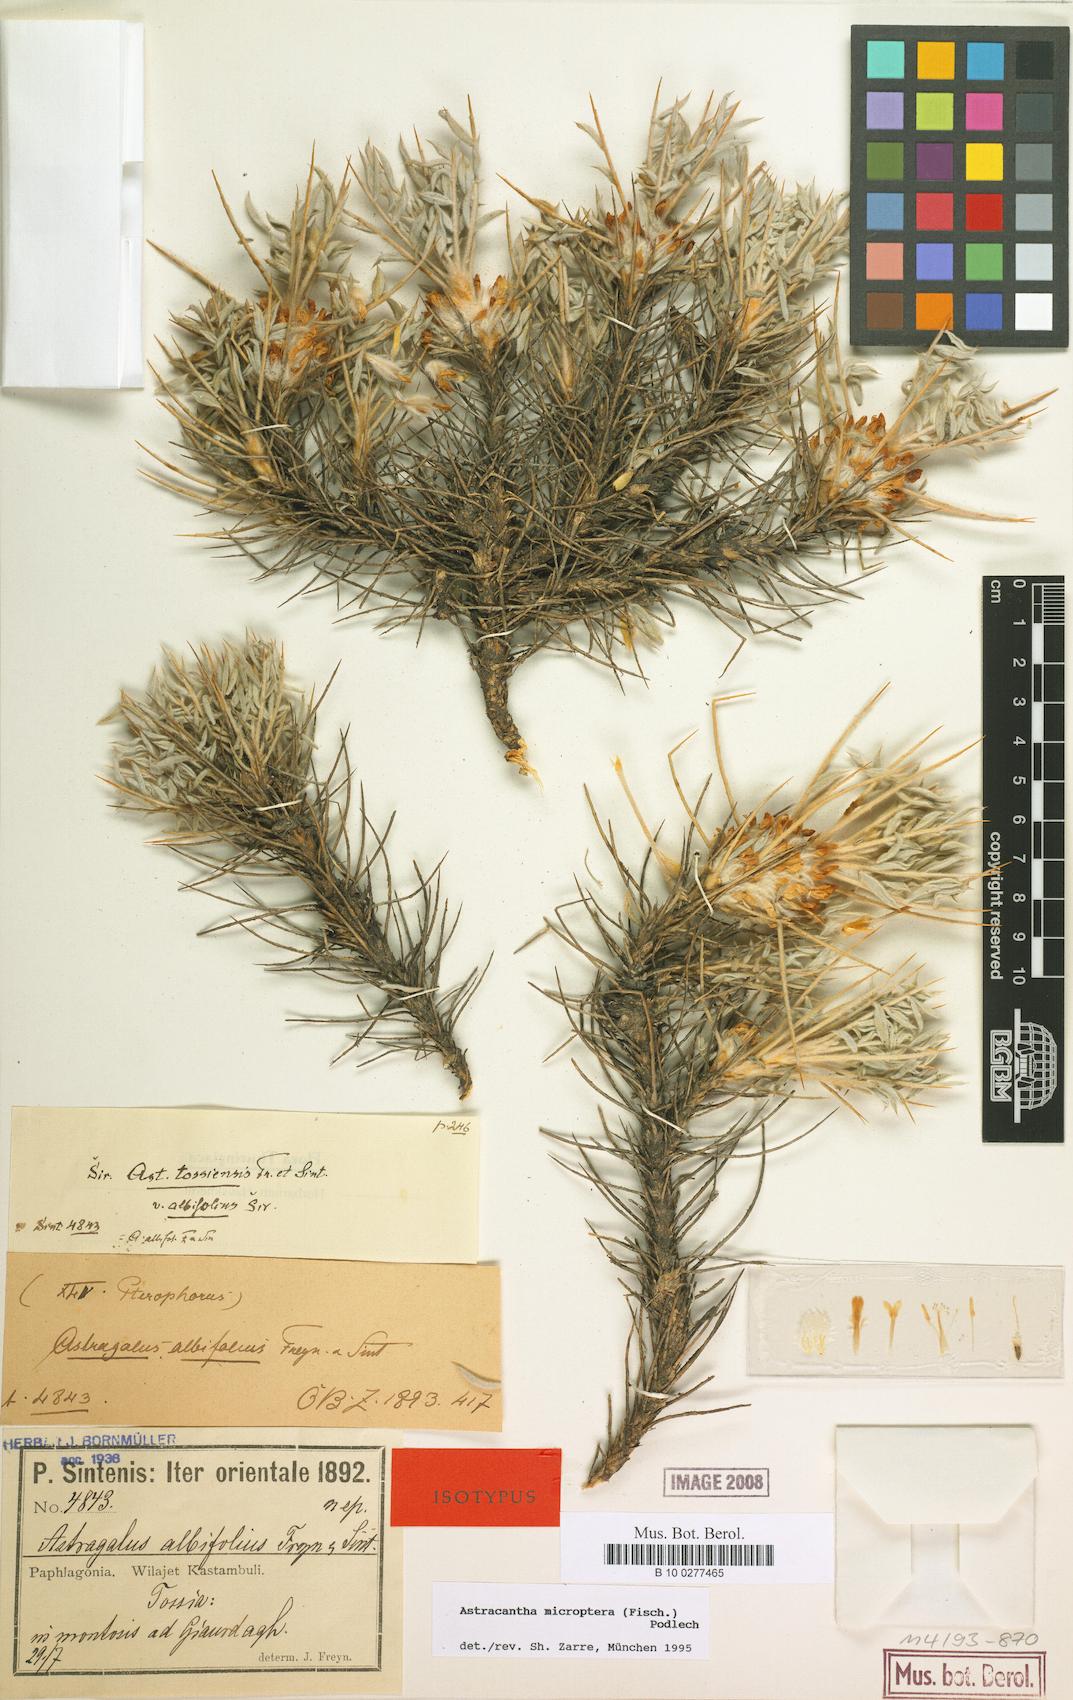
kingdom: Plantae
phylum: Tracheophyta
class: Magnoliopsida
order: Fabales
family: Fabaceae
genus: Astragalus
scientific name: Astragalus micropterus
